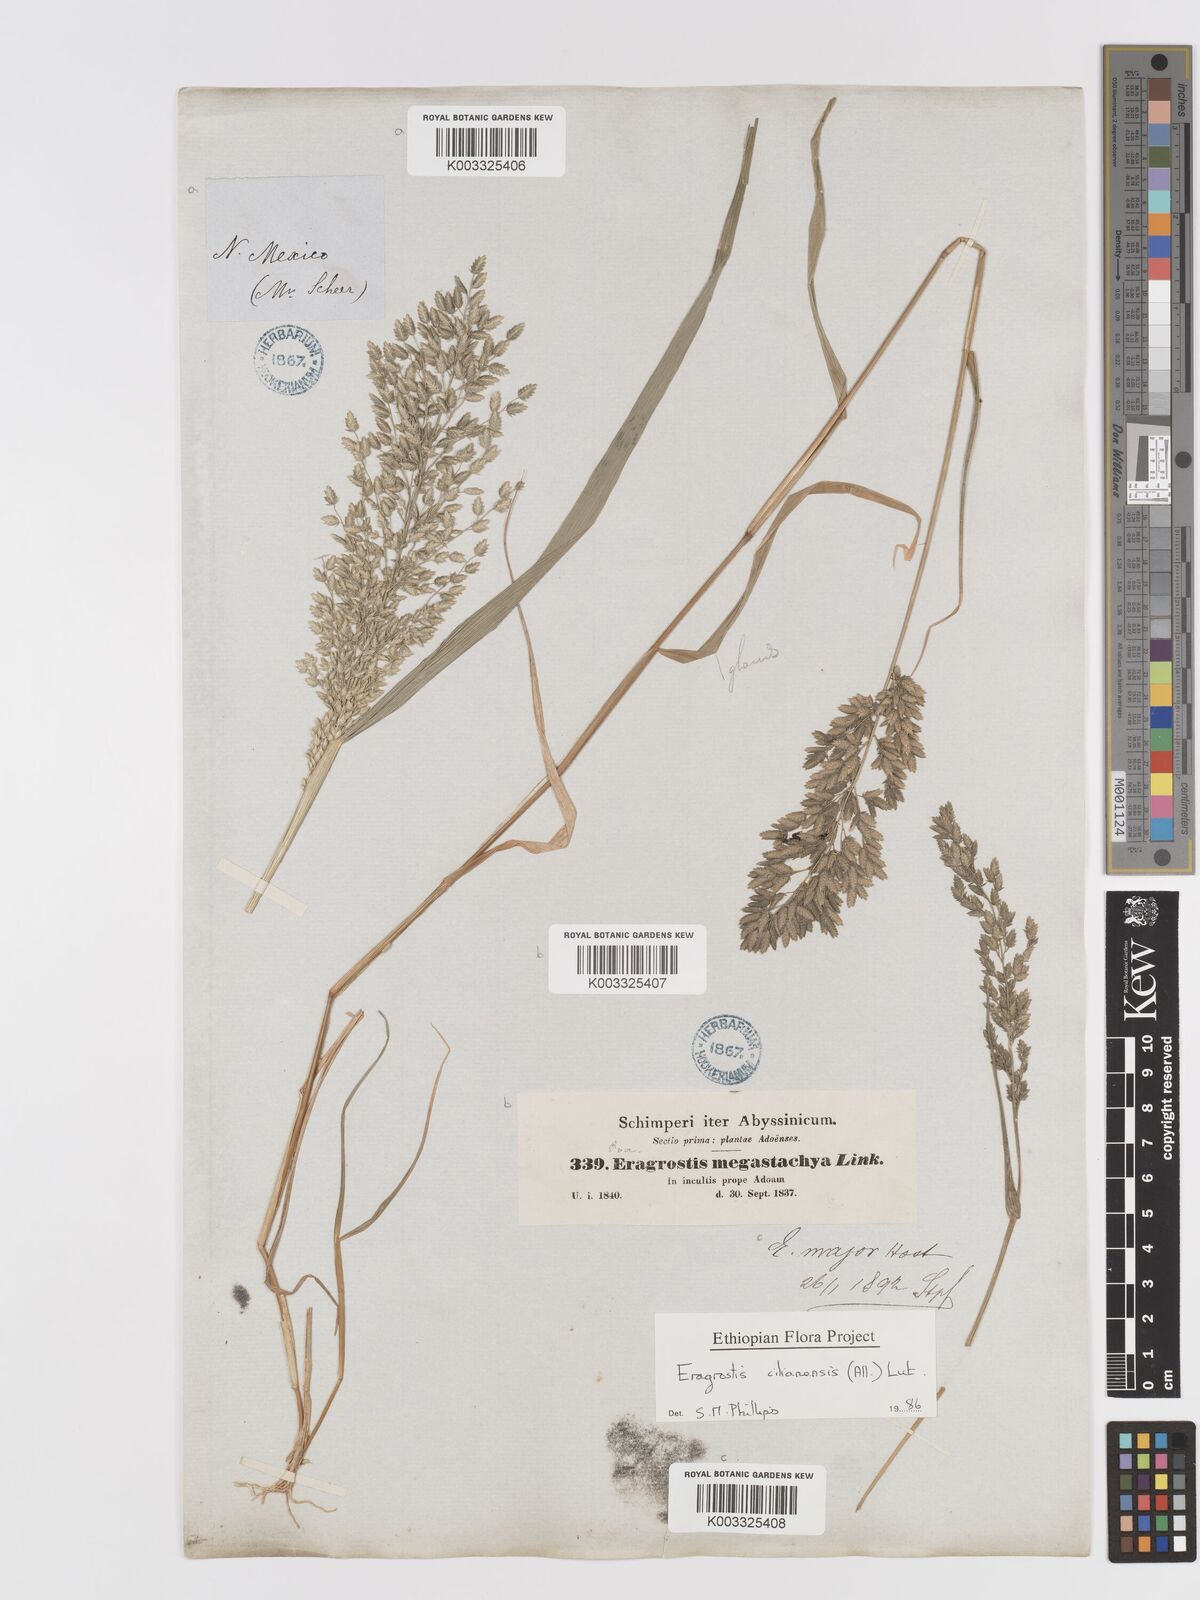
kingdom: Plantae
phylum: Tracheophyta
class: Liliopsida
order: Poales
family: Poaceae
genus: Eragrostis
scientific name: Eragrostis cilianensis
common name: Stinkgrass
